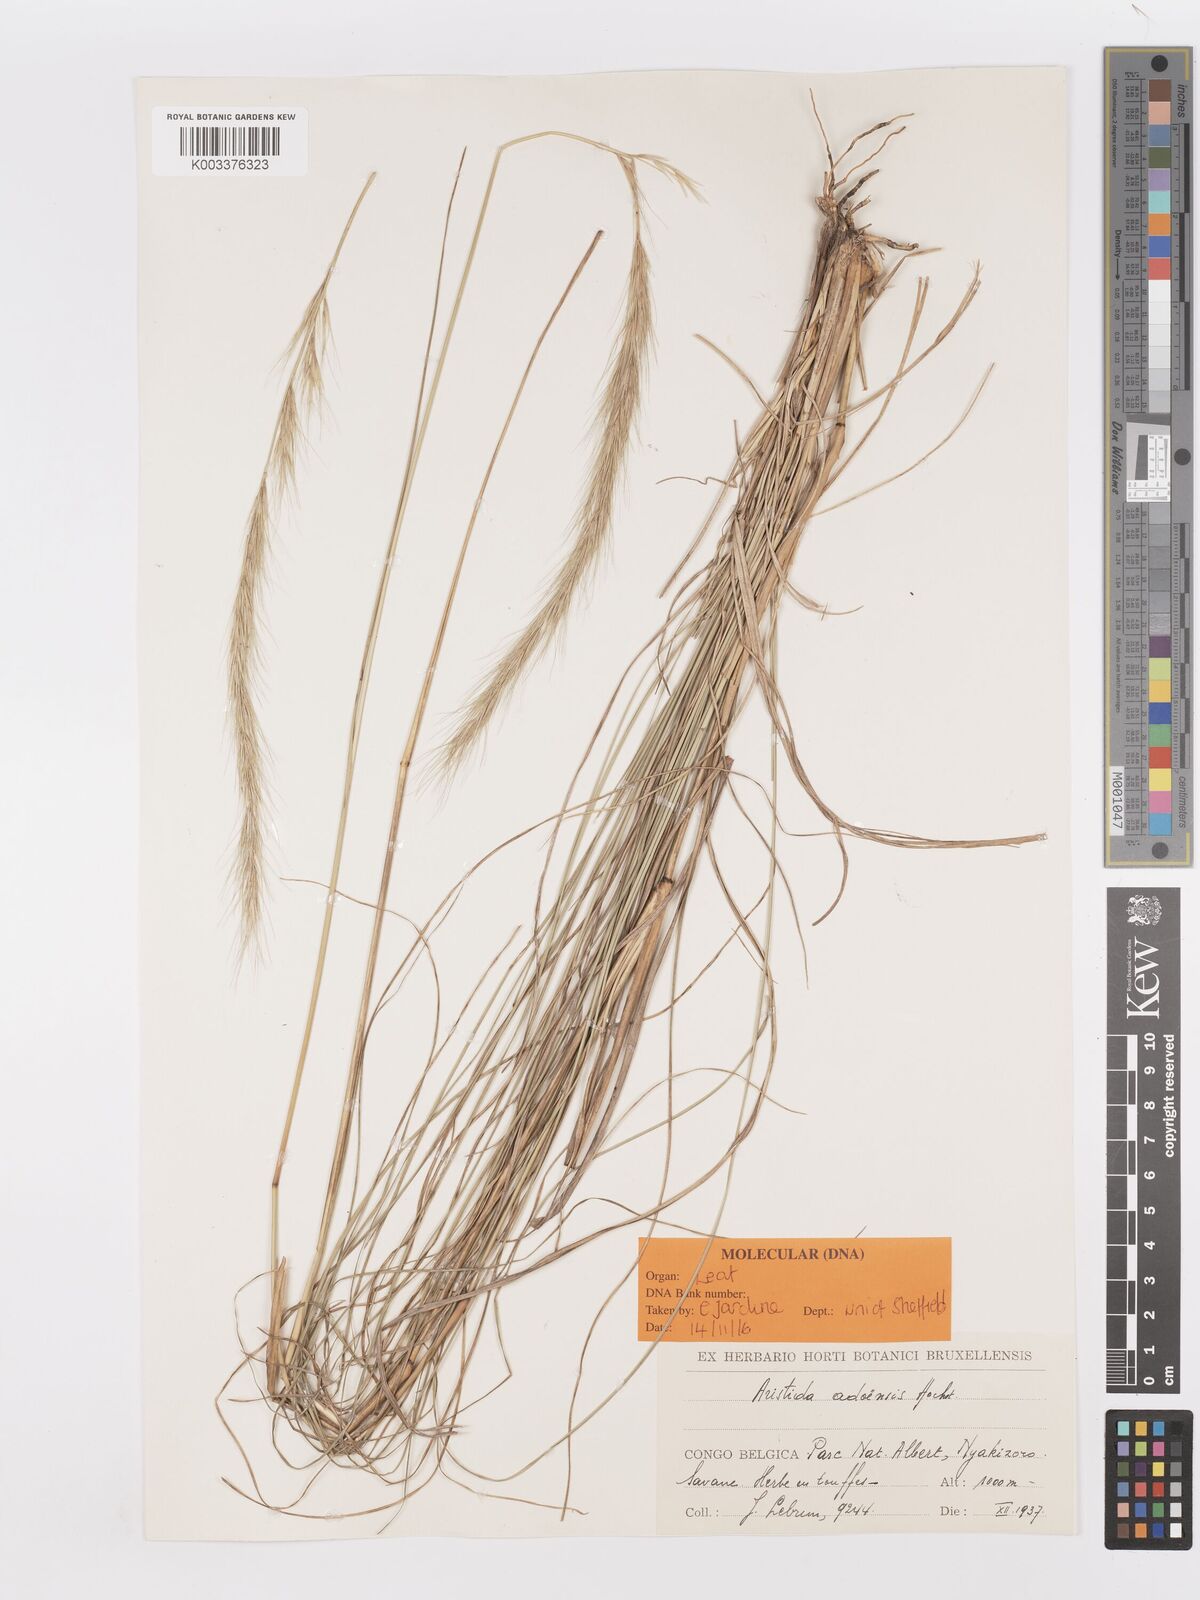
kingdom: Plantae
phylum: Tracheophyta
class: Liliopsida
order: Poales
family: Poaceae
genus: Aristida
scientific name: Aristida adoensis
